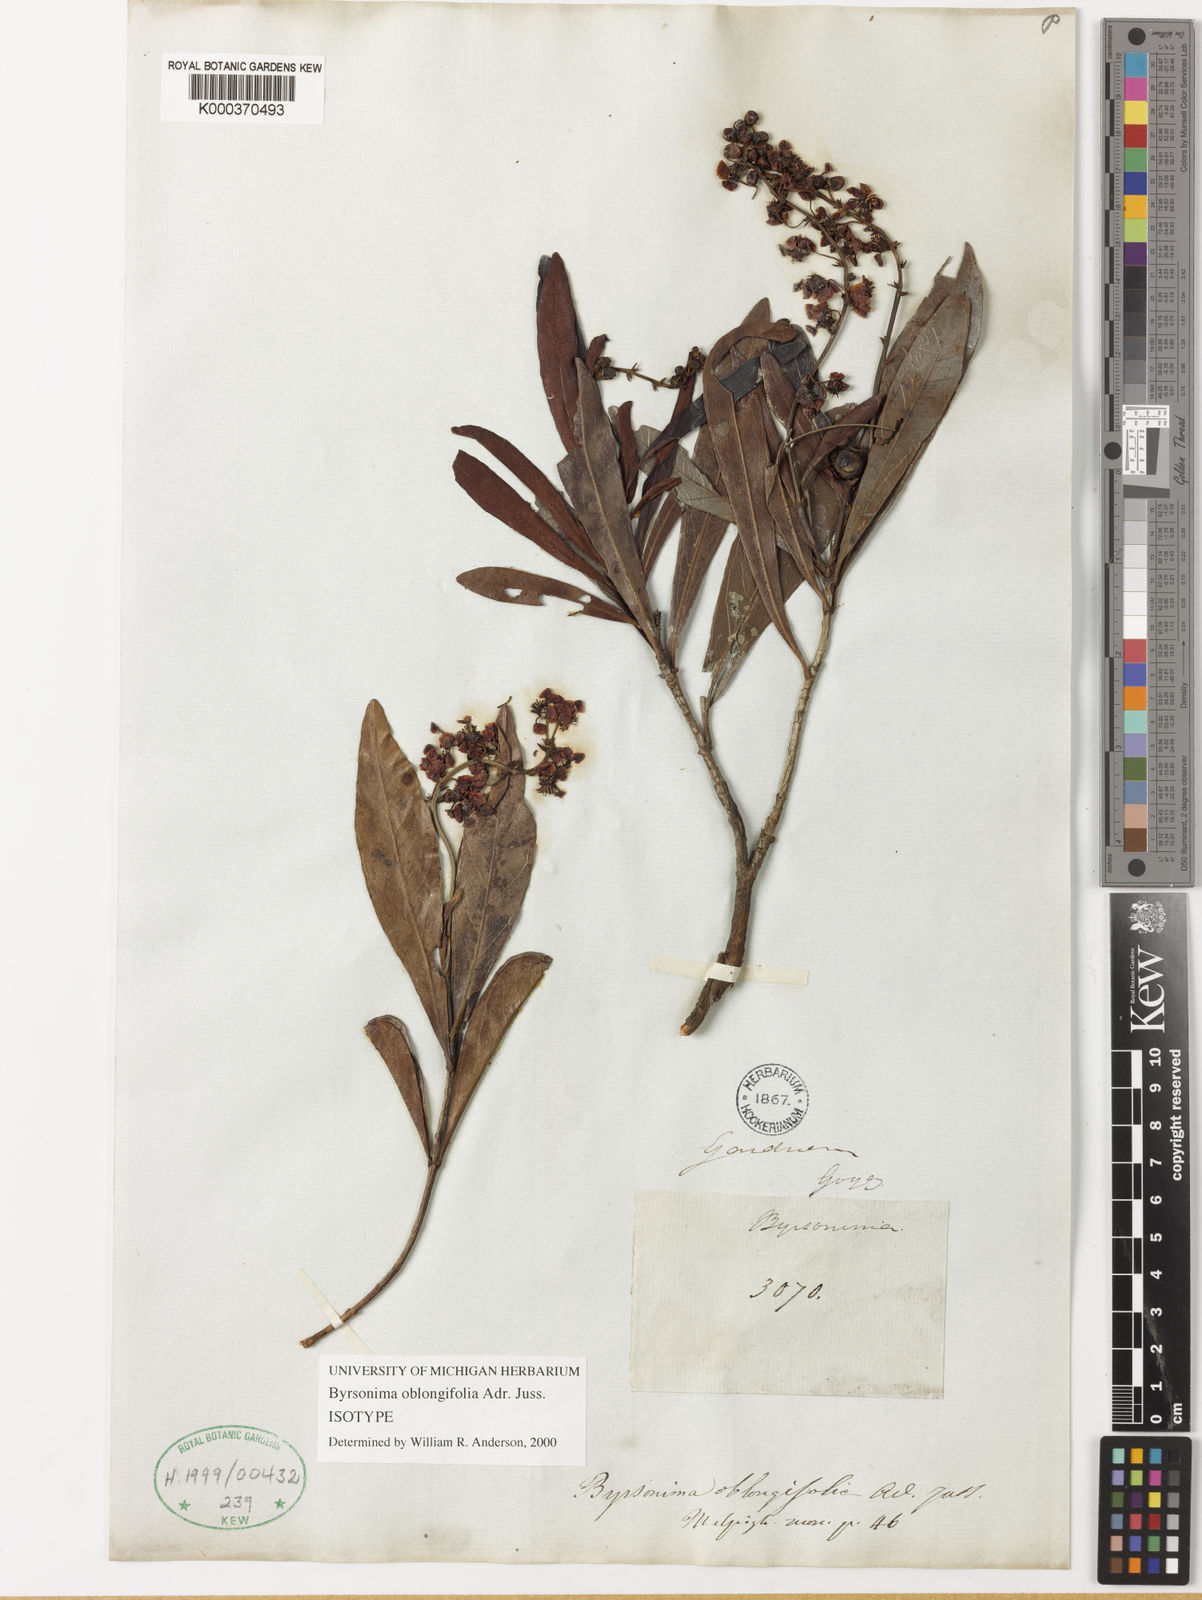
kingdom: Plantae
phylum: Tracheophyta
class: Magnoliopsida
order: Malpighiales
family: Malpighiaceae
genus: Byrsonima
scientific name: Byrsonima oblongifolia
